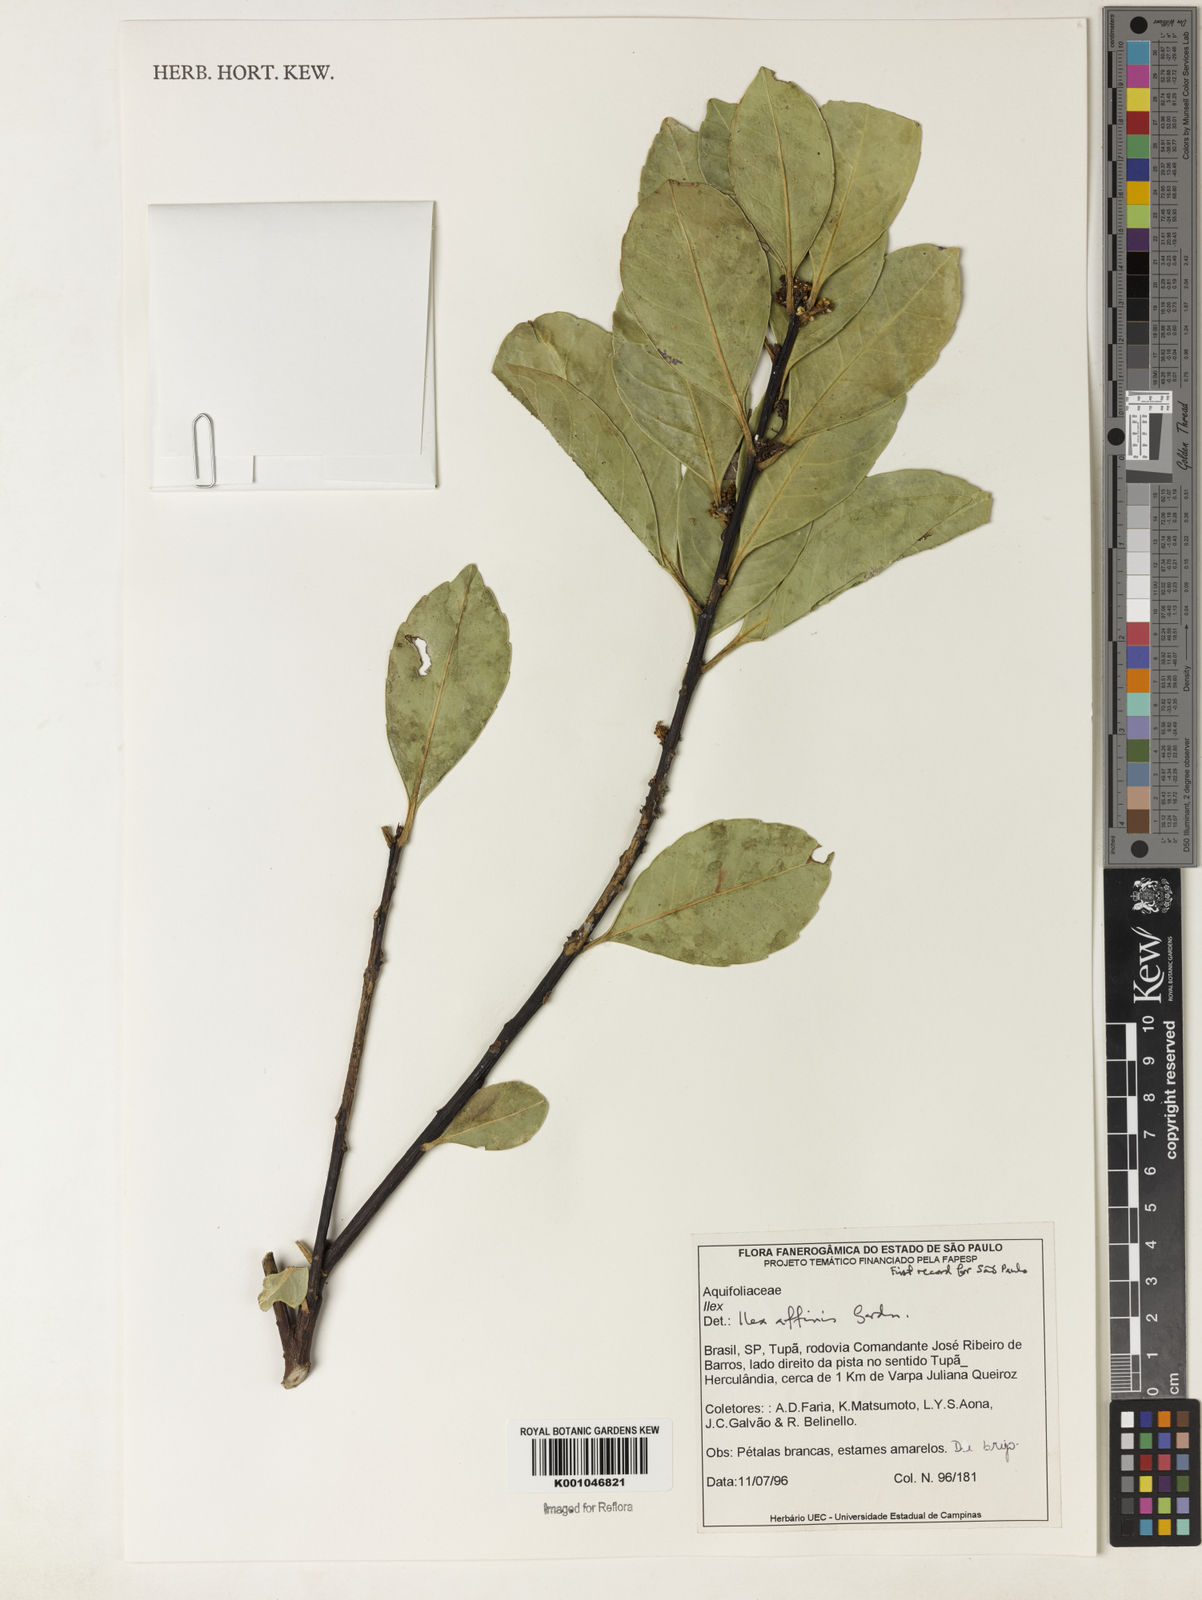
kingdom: Plantae
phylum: Tracheophyta
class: Magnoliopsida
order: Aquifoliales
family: Aquifoliaceae
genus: Ilex
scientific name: Ilex affinis
